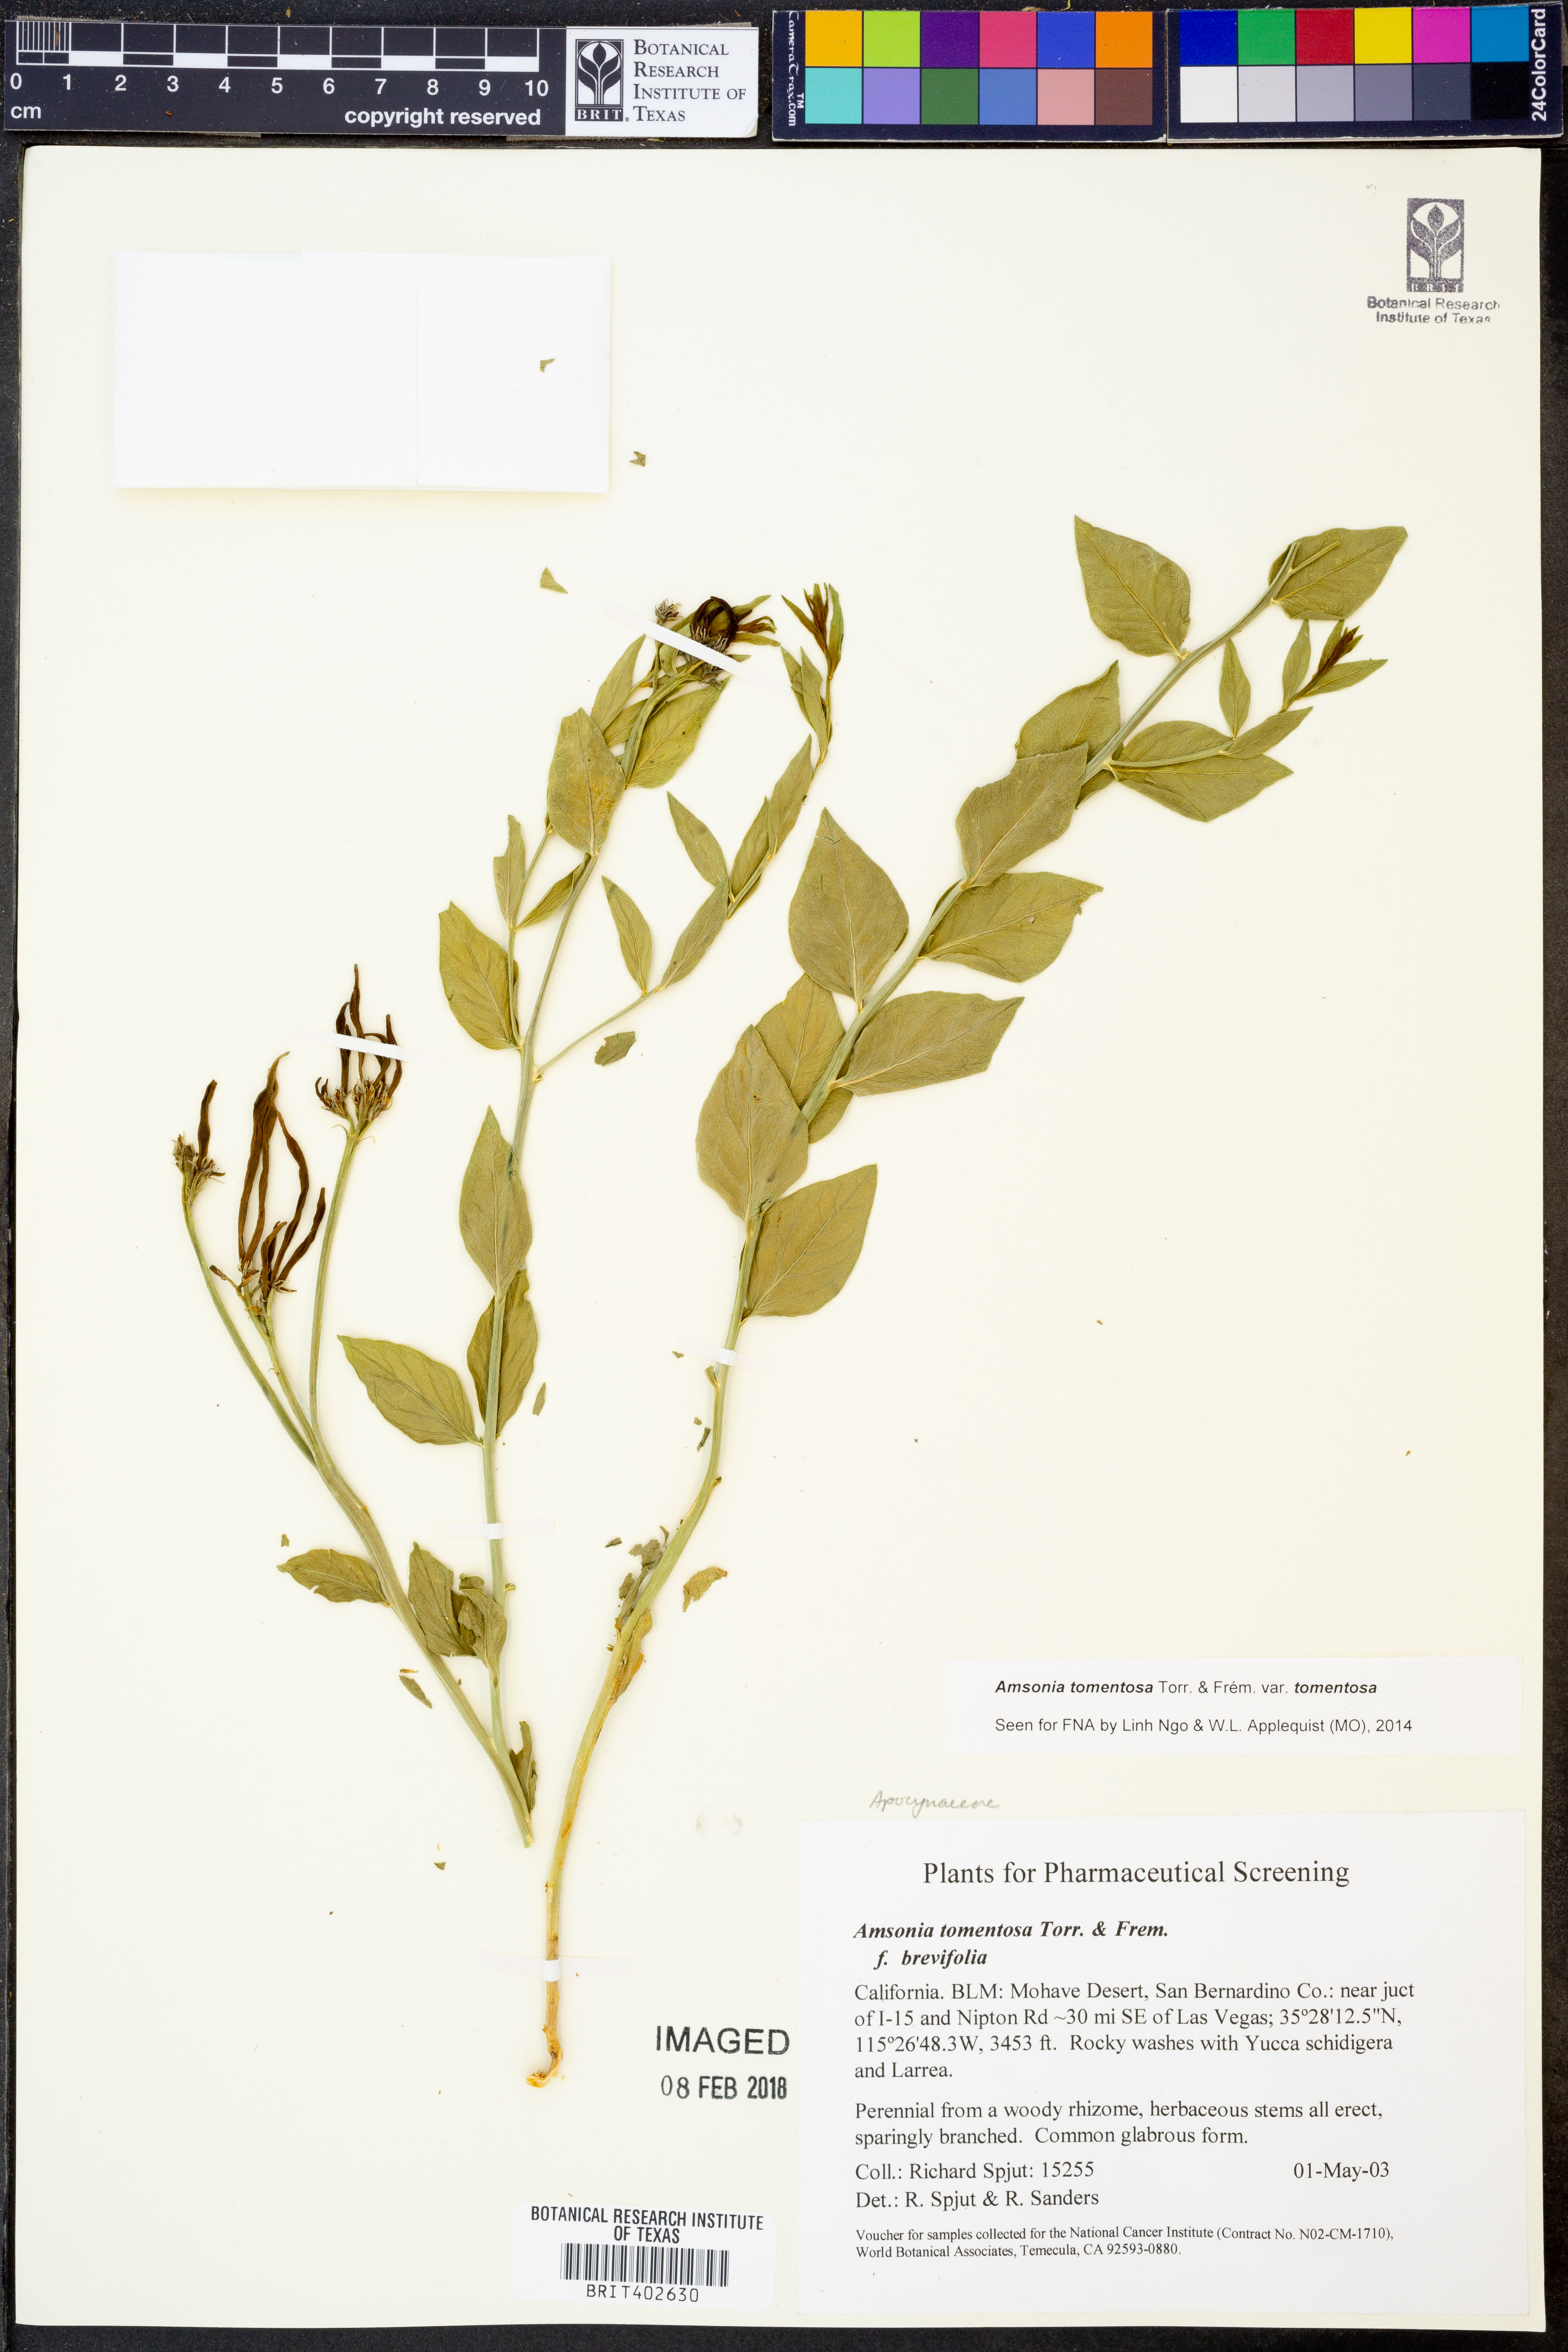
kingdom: Plantae
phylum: Tracheophyta
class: Magnoliopsida
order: Gentianales
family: Apocynaceae
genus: Amsonia
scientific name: Amsonia tomentosa
